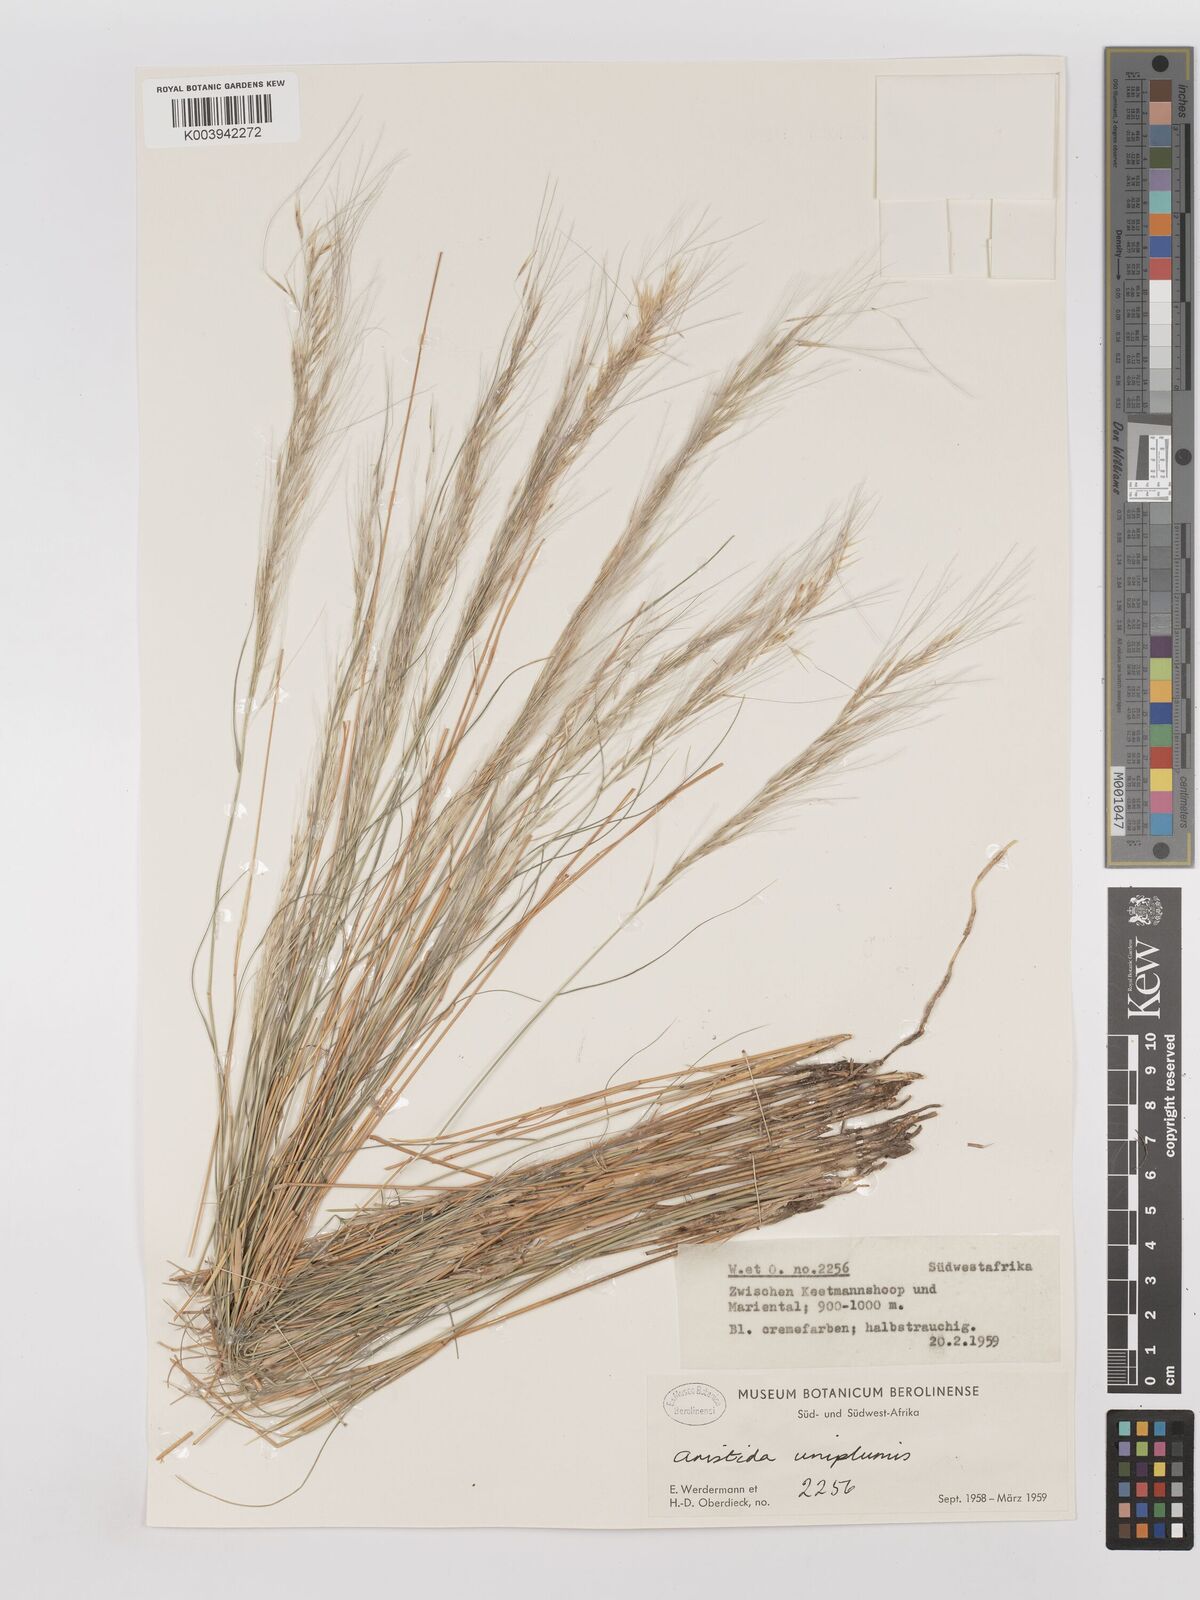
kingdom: Plantae
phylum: Tracheophyta
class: Liliopsida
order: Poales
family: Poaceae
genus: Stipagrostis
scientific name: Stipagrostis uniplumis
